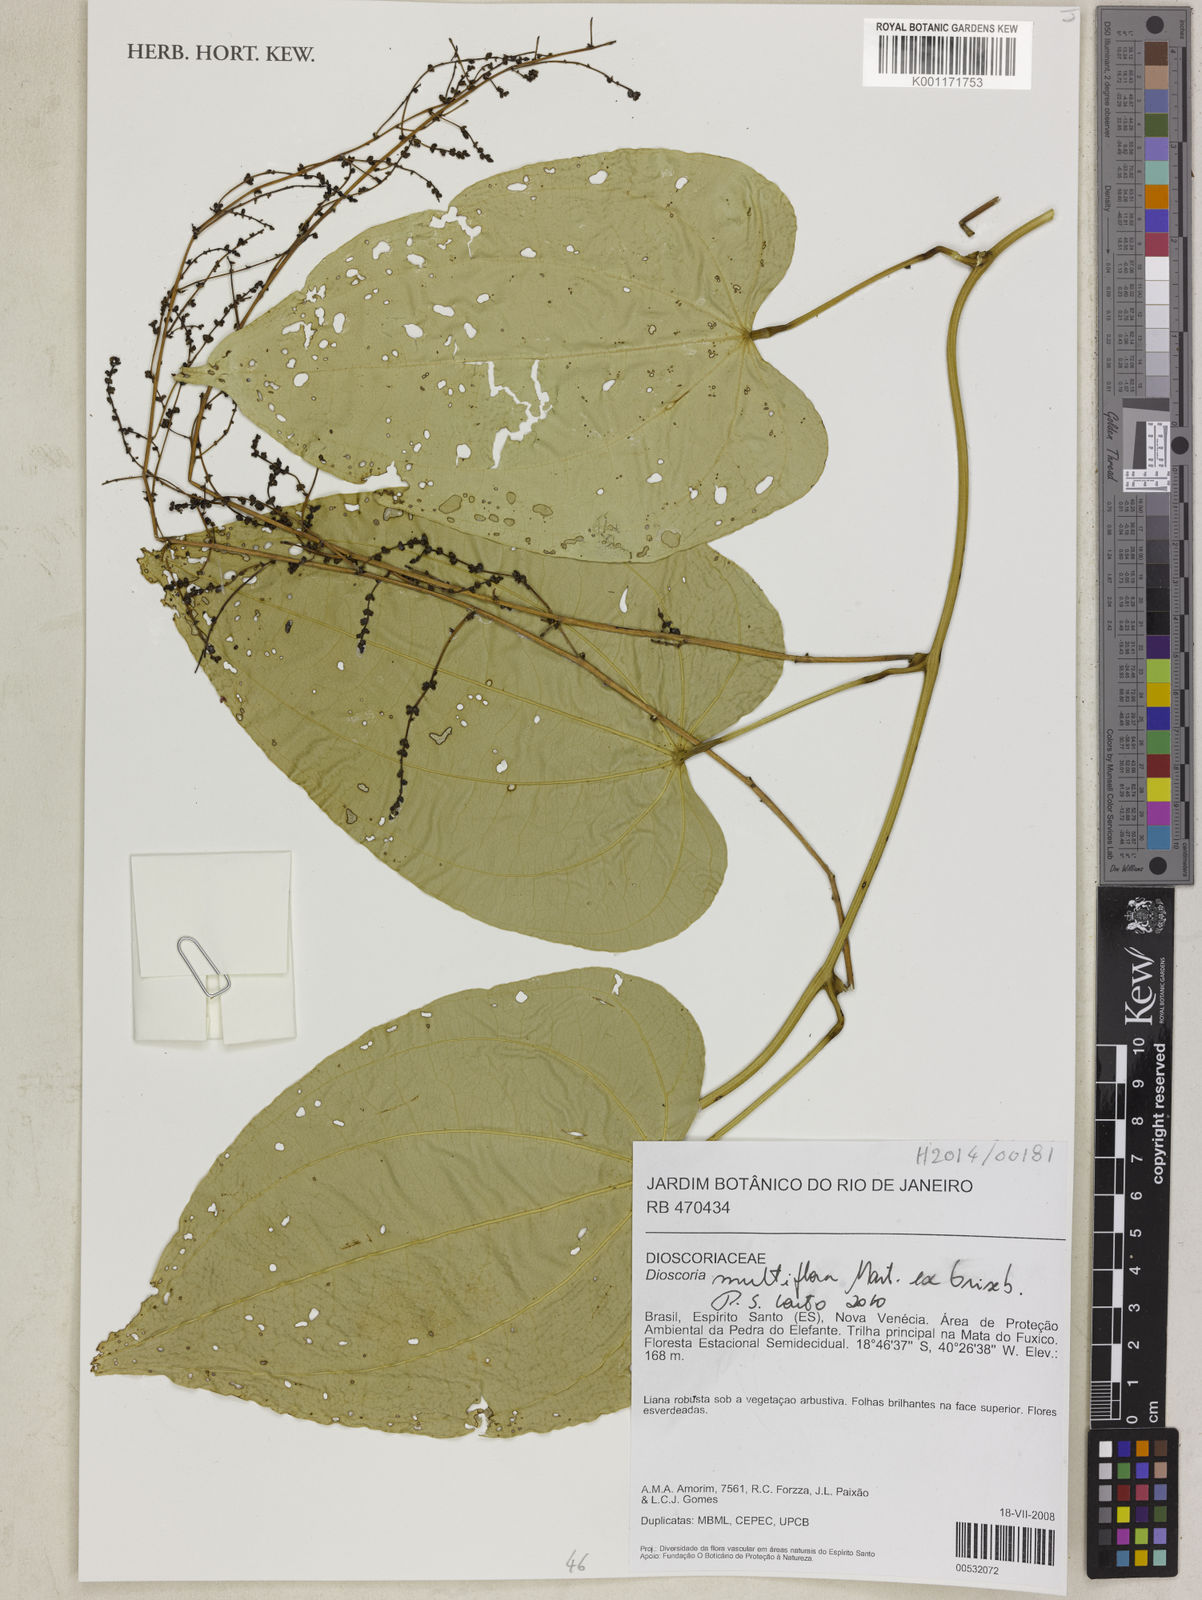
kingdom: Plantae
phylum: Tracheophyta
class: Liliopsida
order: Dioscoreales
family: Dioscoreaceae
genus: Dioscorea
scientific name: Dioscorea multiflora
